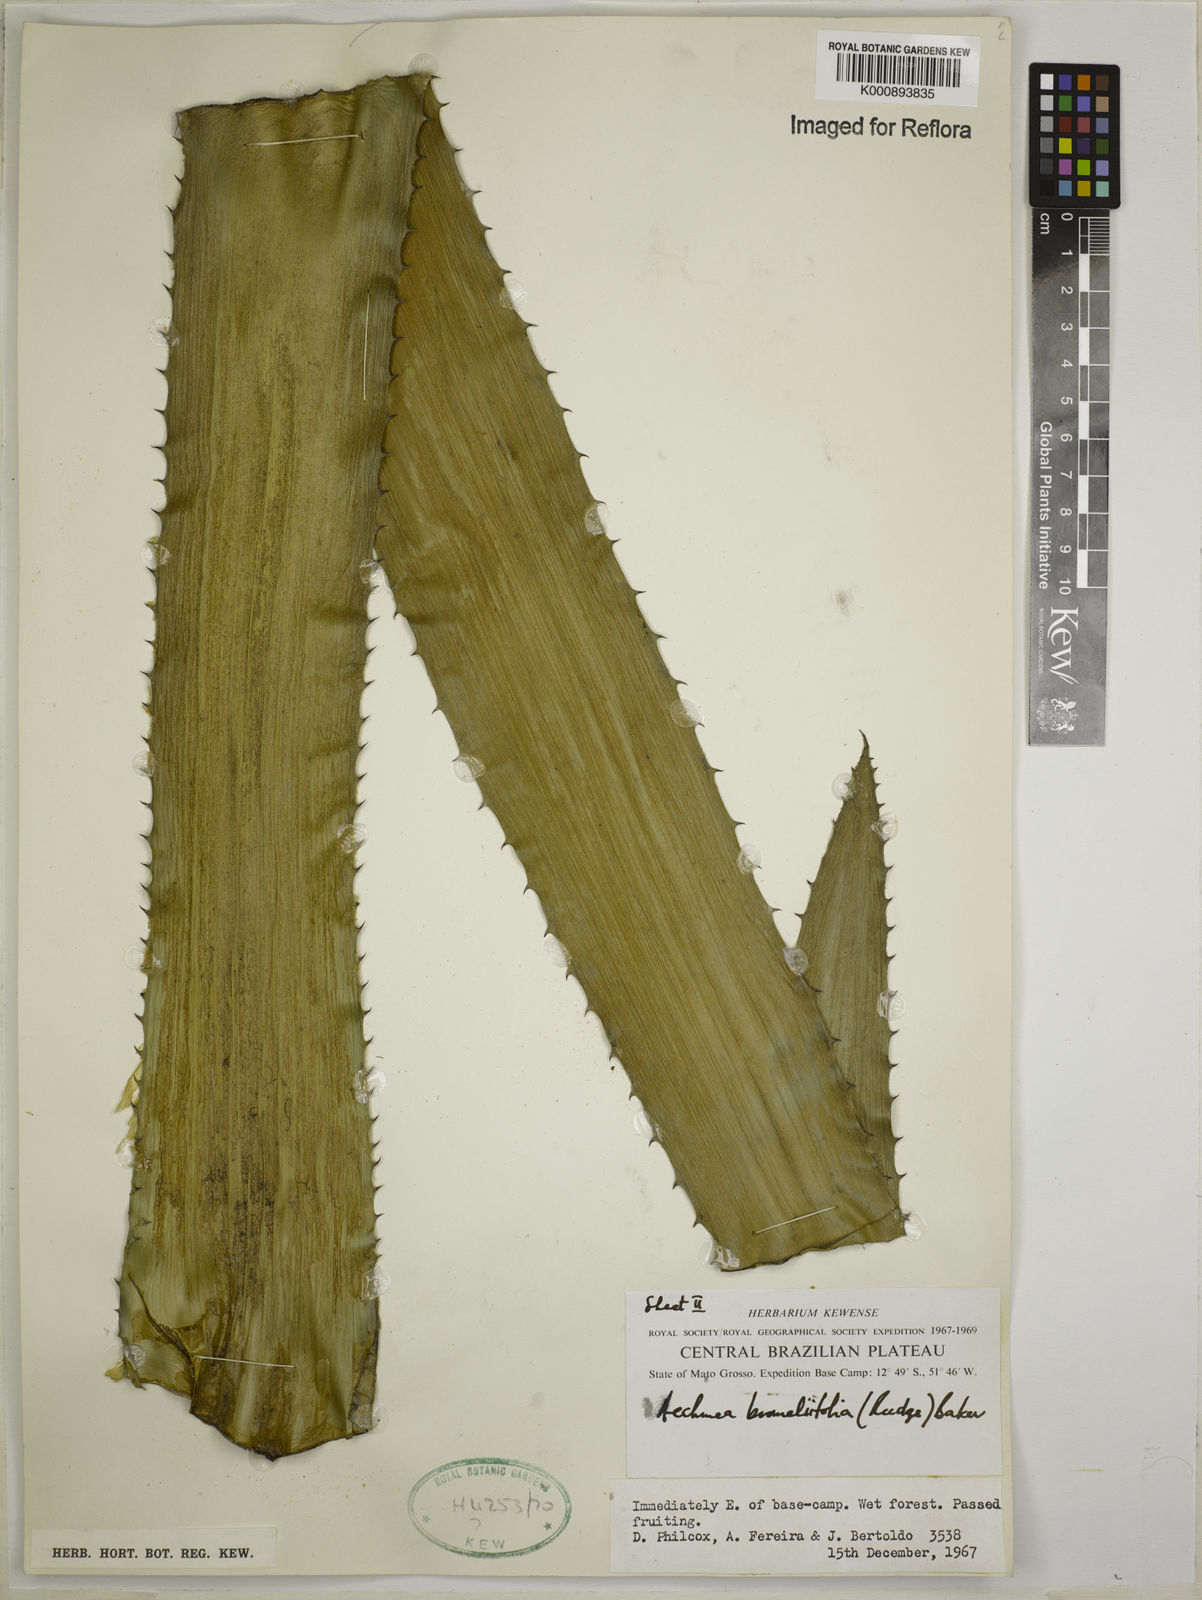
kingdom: Plantae
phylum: Tracheophyta
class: Liliopsida
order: Poales
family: Bromeliaceae
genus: Aechmea
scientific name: Aechmea
